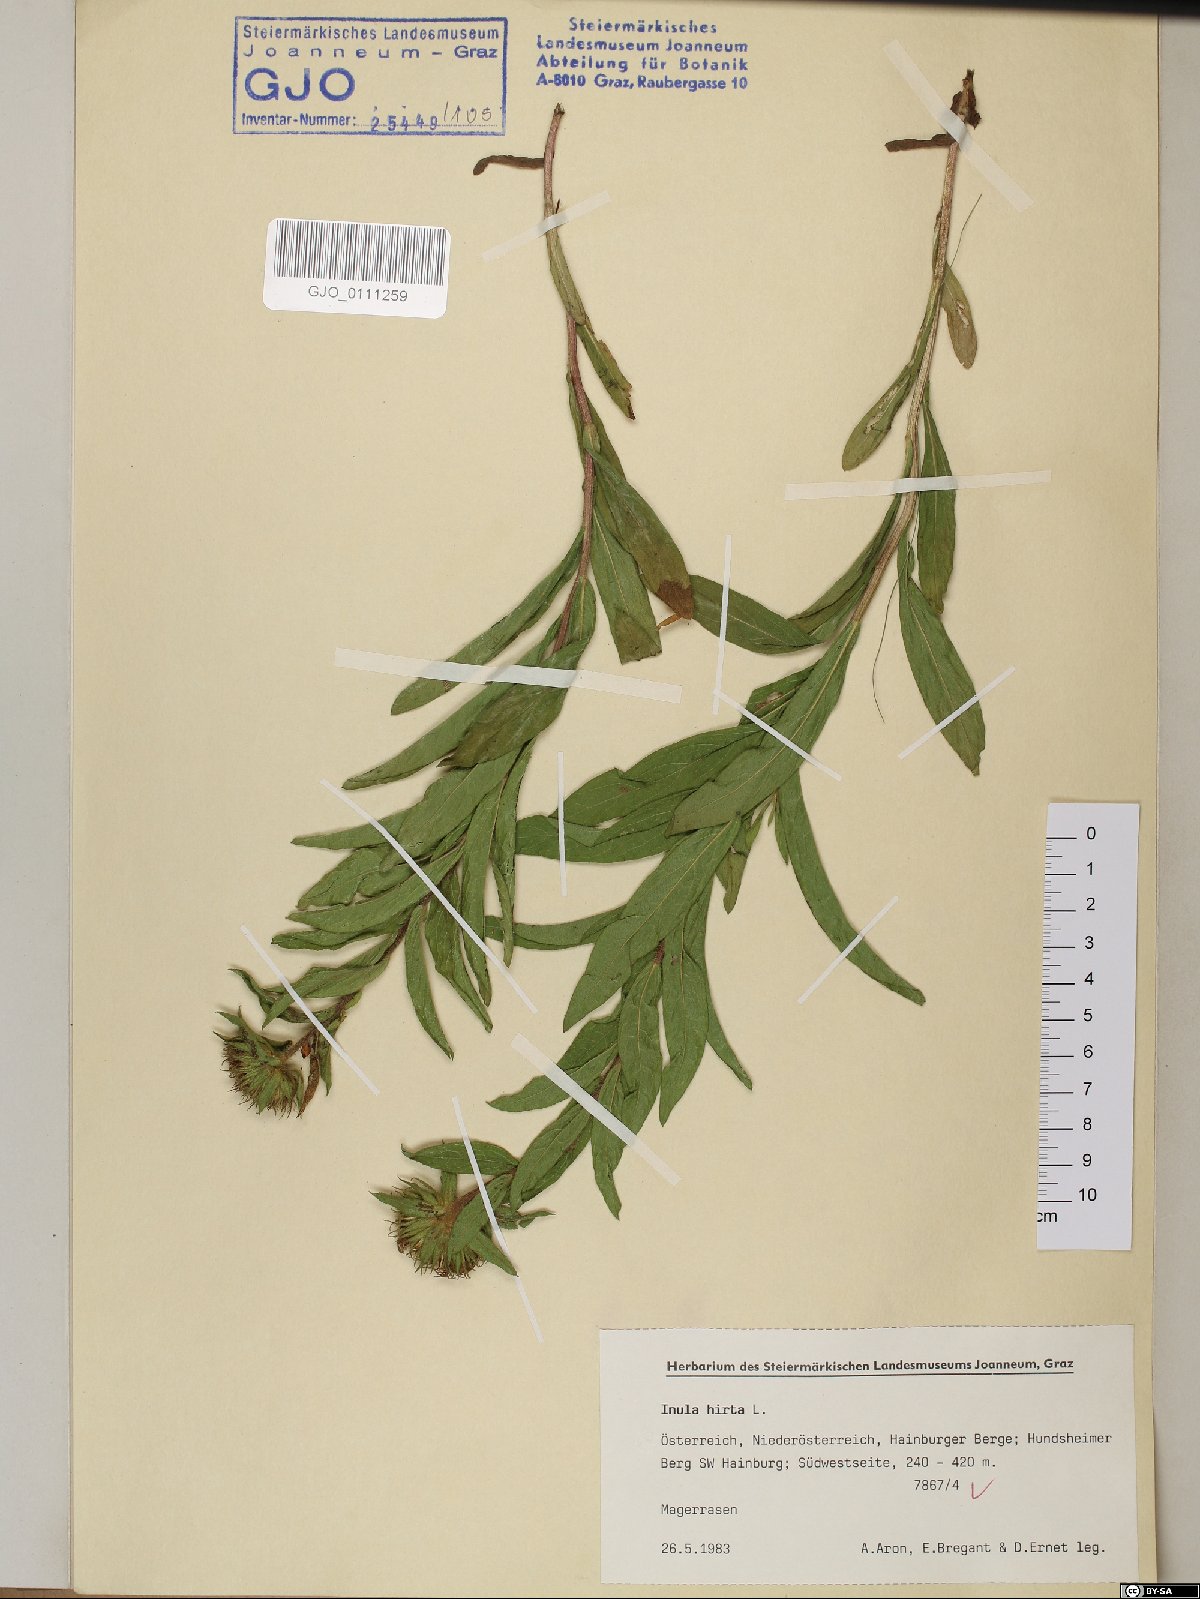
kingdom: Plantae
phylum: Tracheophyta
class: Magnoliopsida
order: Asterales
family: Asteraceae
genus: Pentanema
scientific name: Pentanema hirtum
